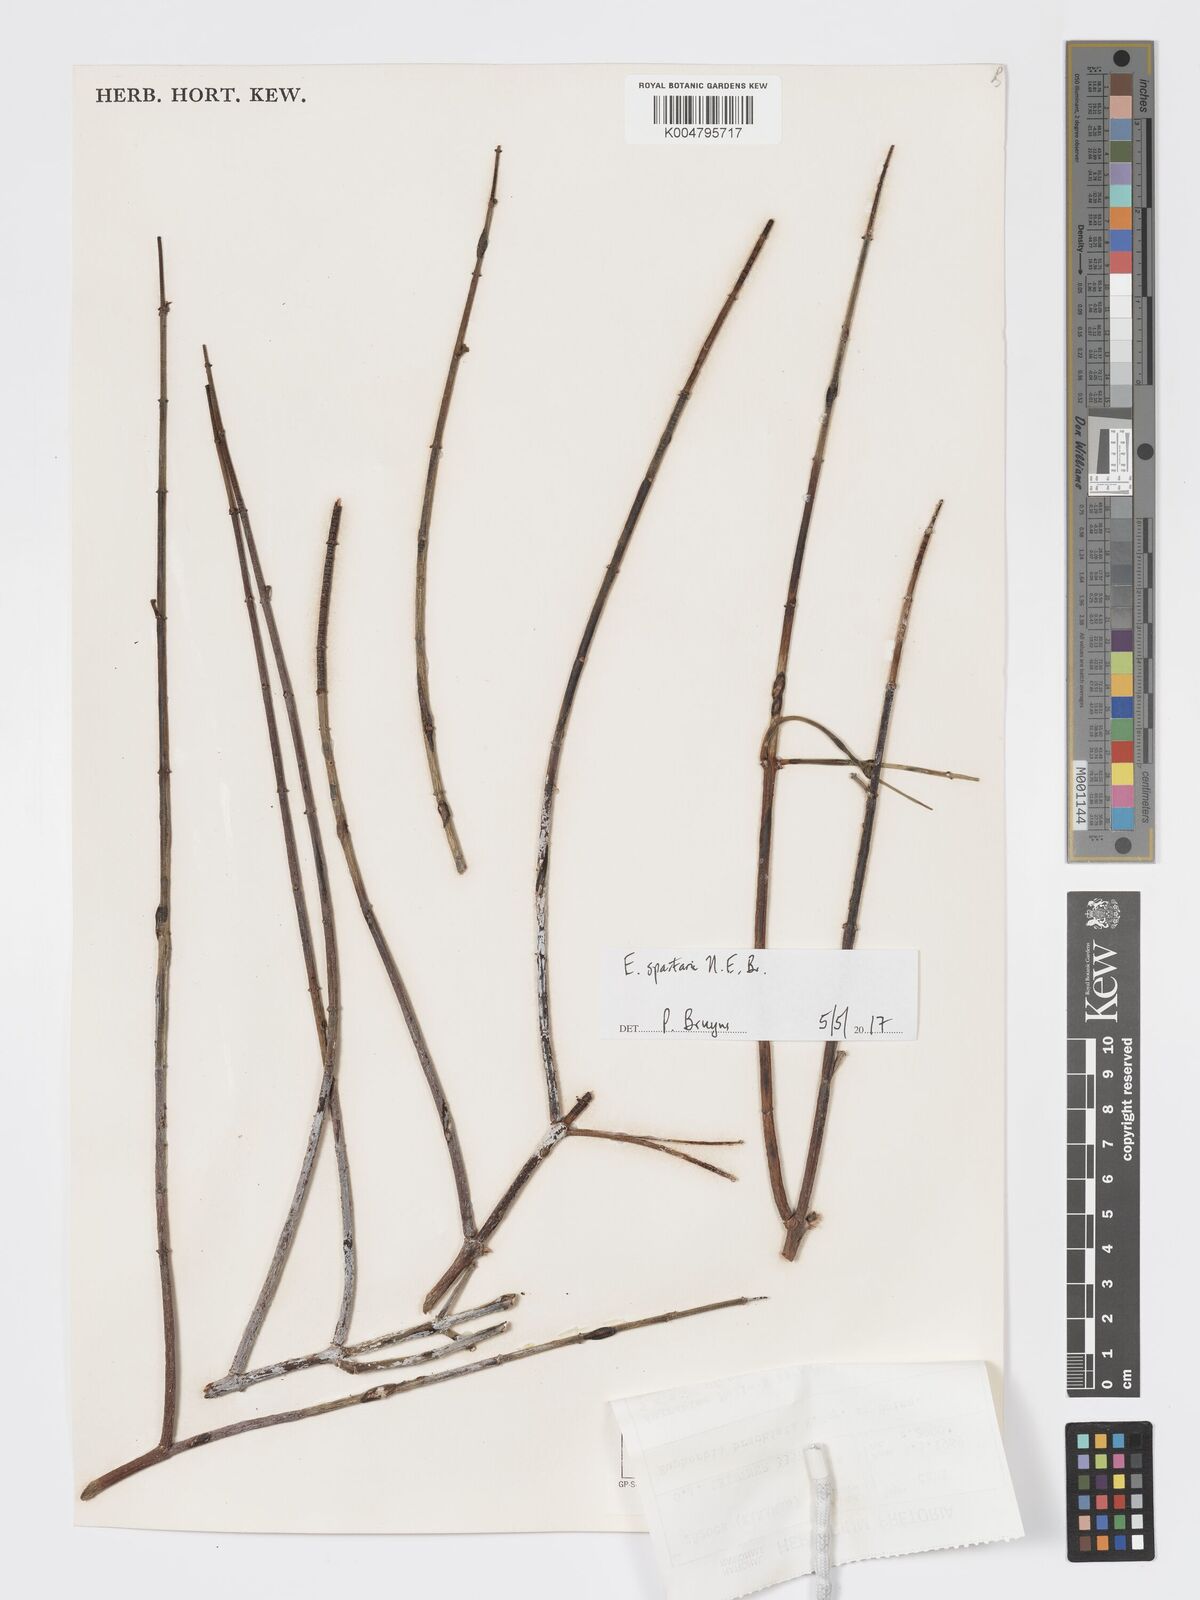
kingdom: Plantae
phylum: Tracheophyta
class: Magnoliopsida
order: Malpighiales
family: Euphorbiaceae
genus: Euphorbia
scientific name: Euphorbia spartaria
